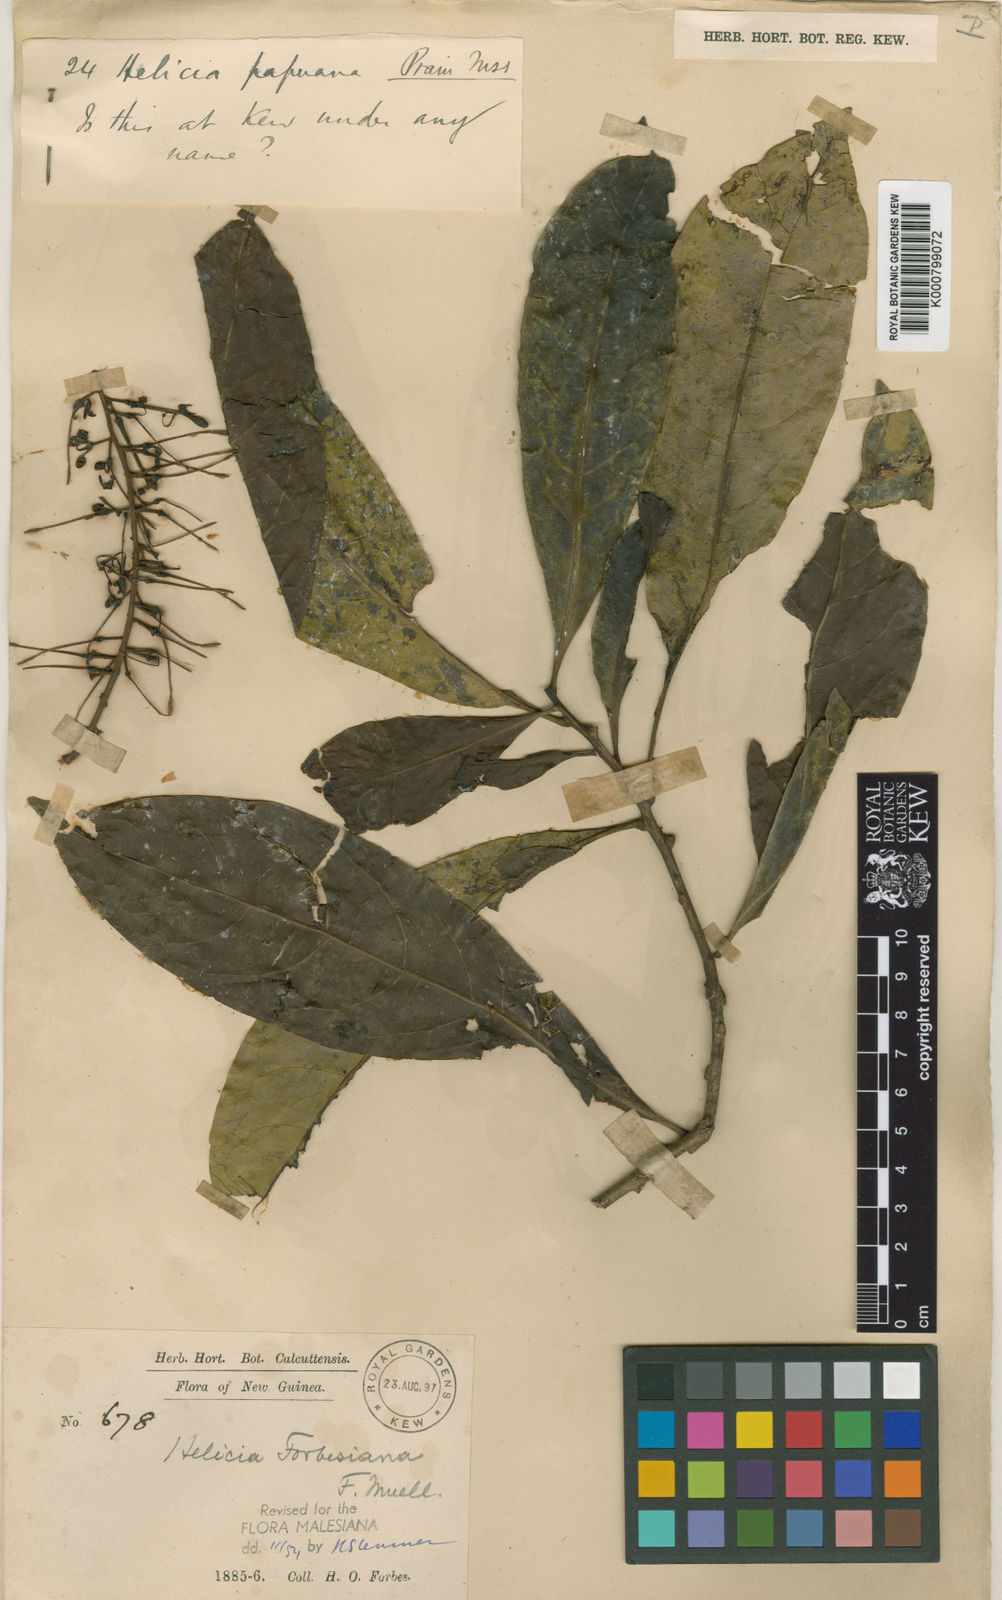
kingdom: Plantae
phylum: Tracheophyta
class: Magnoliopsida
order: Proteales
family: Proteaceae
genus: Helicia
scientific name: Helicia forbesiana
